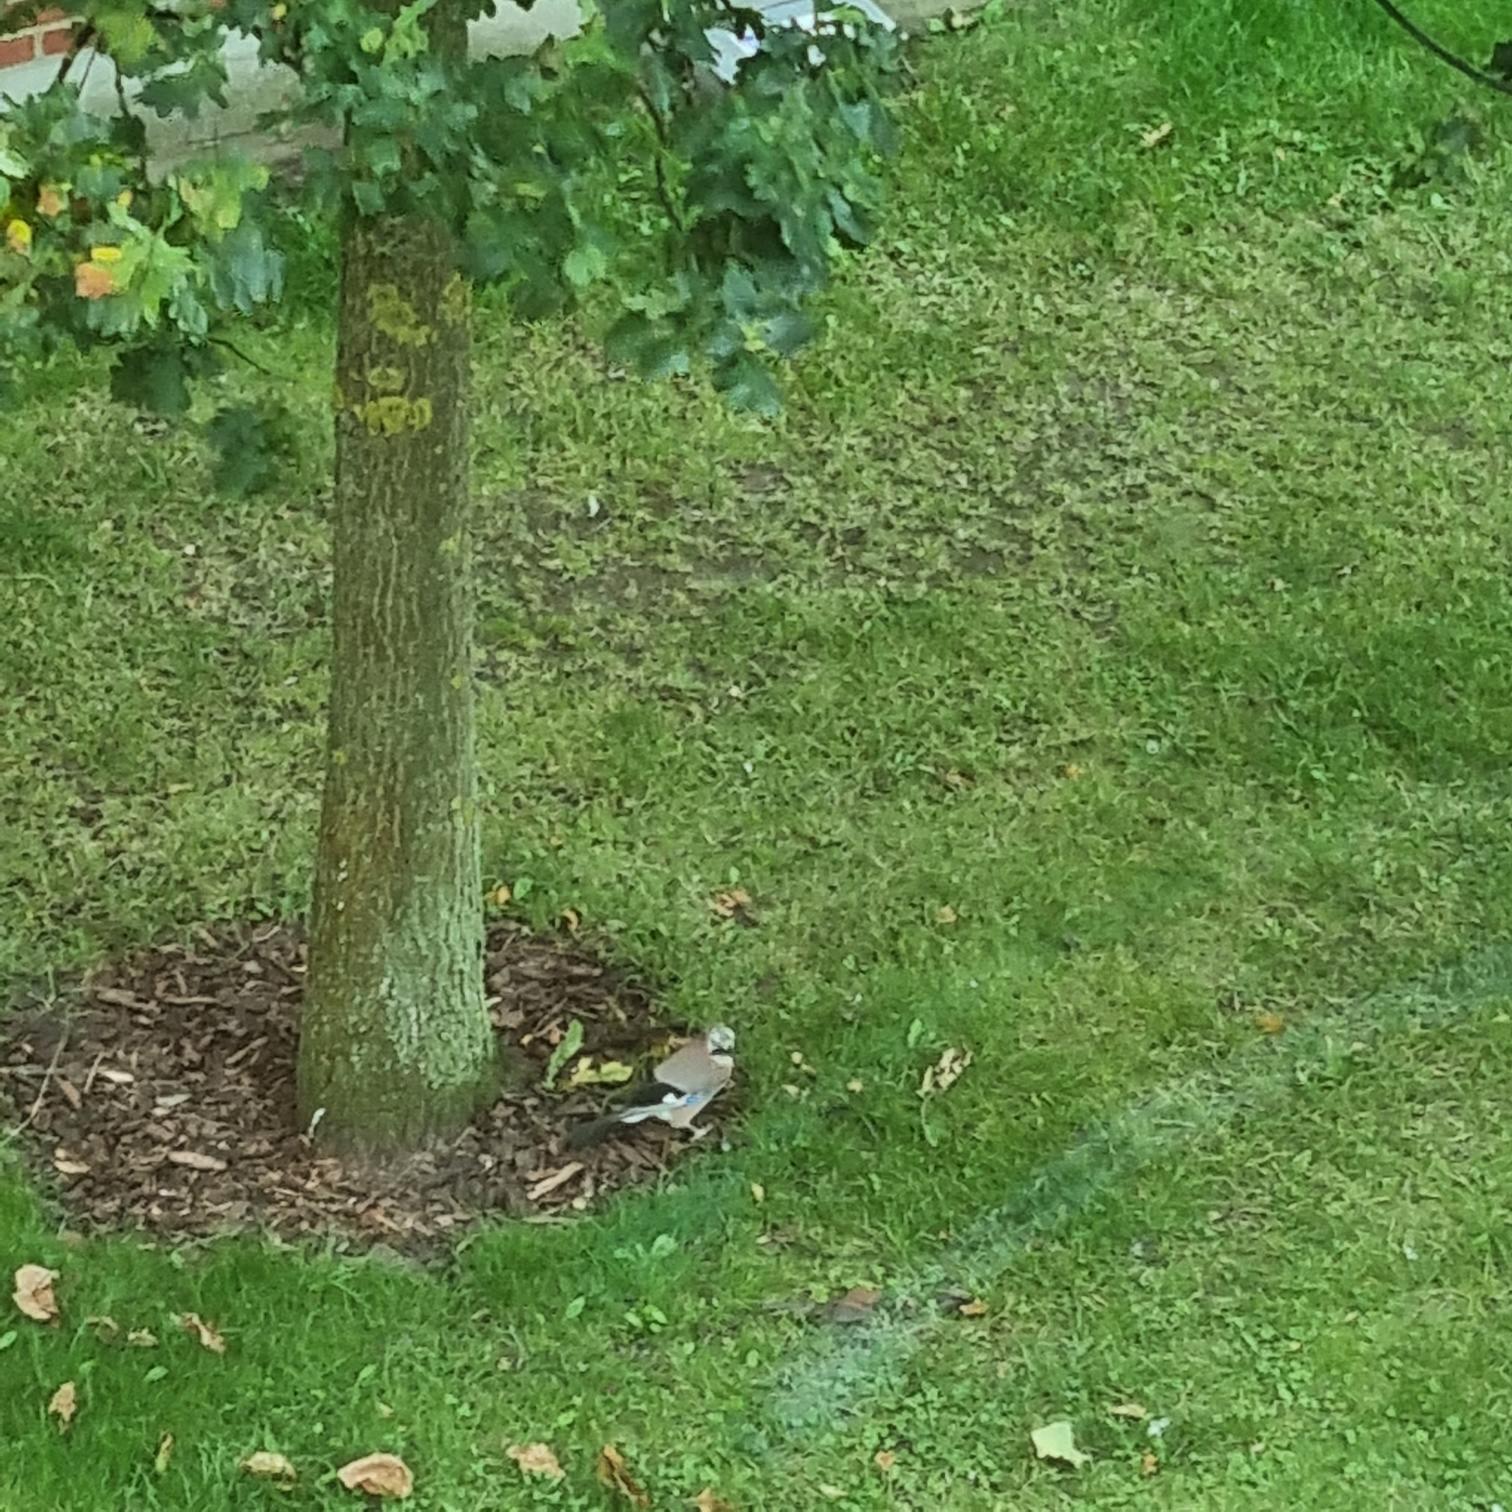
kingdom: Animalia
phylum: Chordata
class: Aves
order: Passeriformes
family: Corvidae
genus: Garrulus
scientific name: Garrulus glandarius
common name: Skovskade
